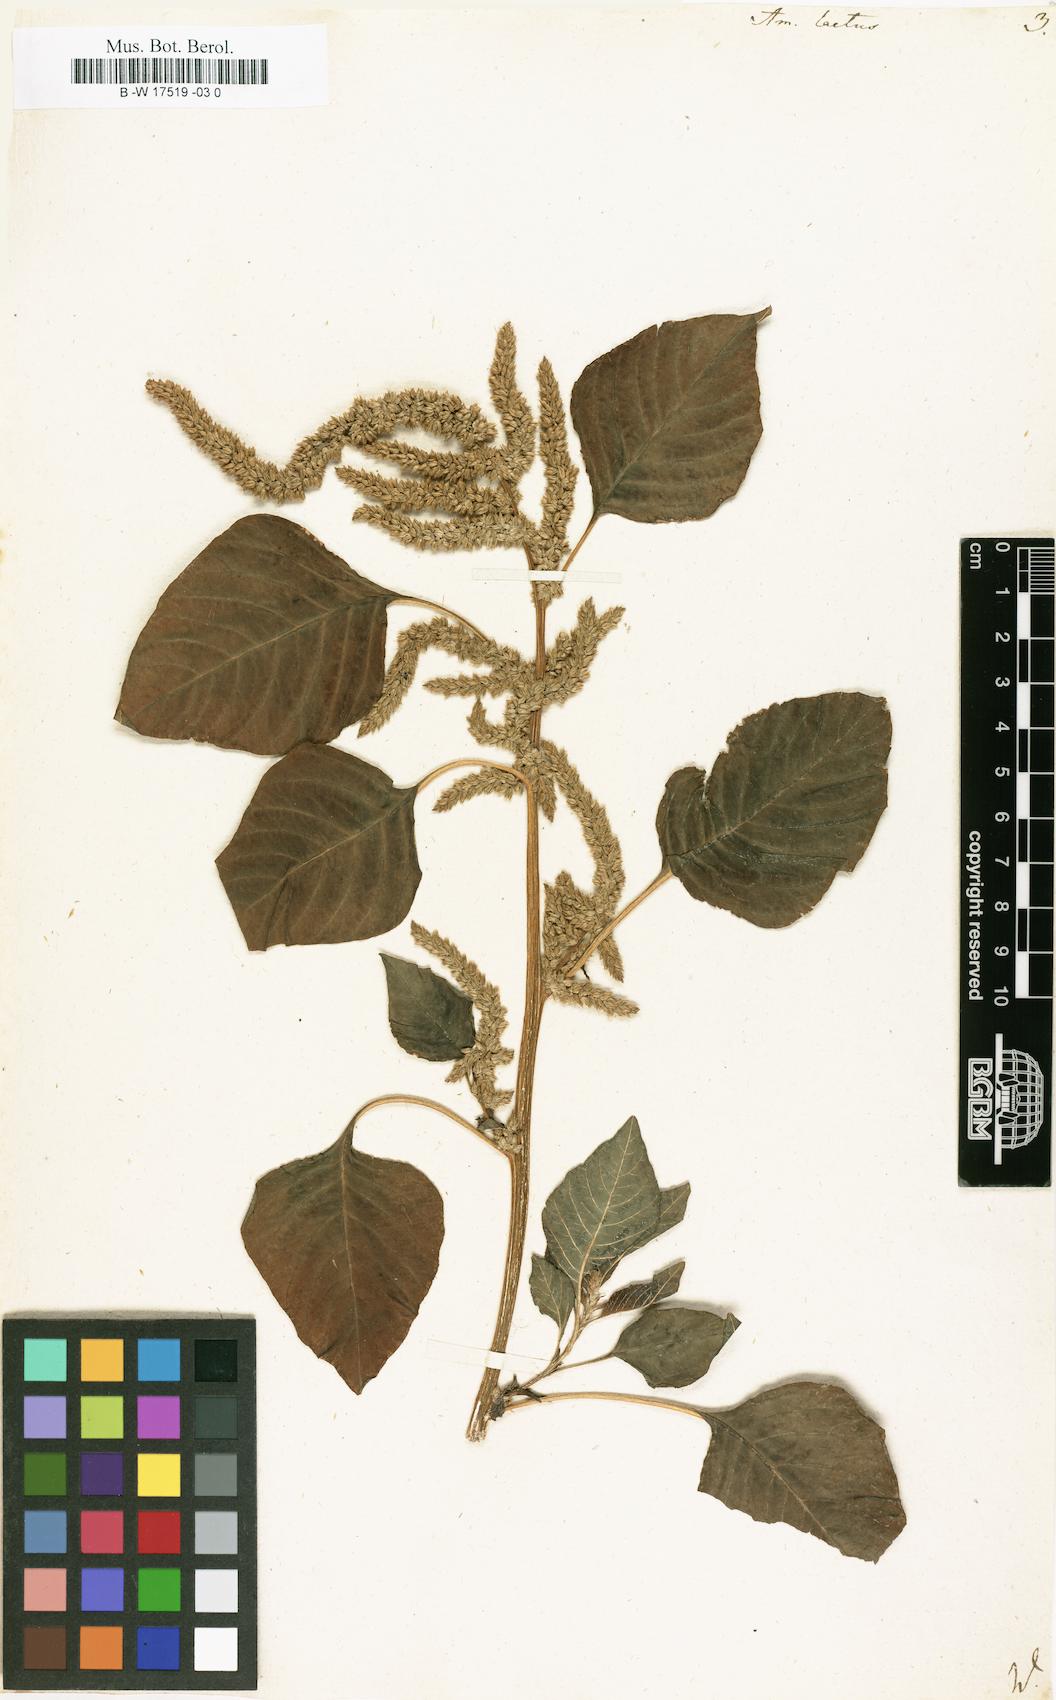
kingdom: Plantae
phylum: Tracheophyta
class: Magnoliopsida
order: Caryophyllales
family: Amaranthaceae
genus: Amaranthus
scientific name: Amaranthus hybridus
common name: Green amaranth
